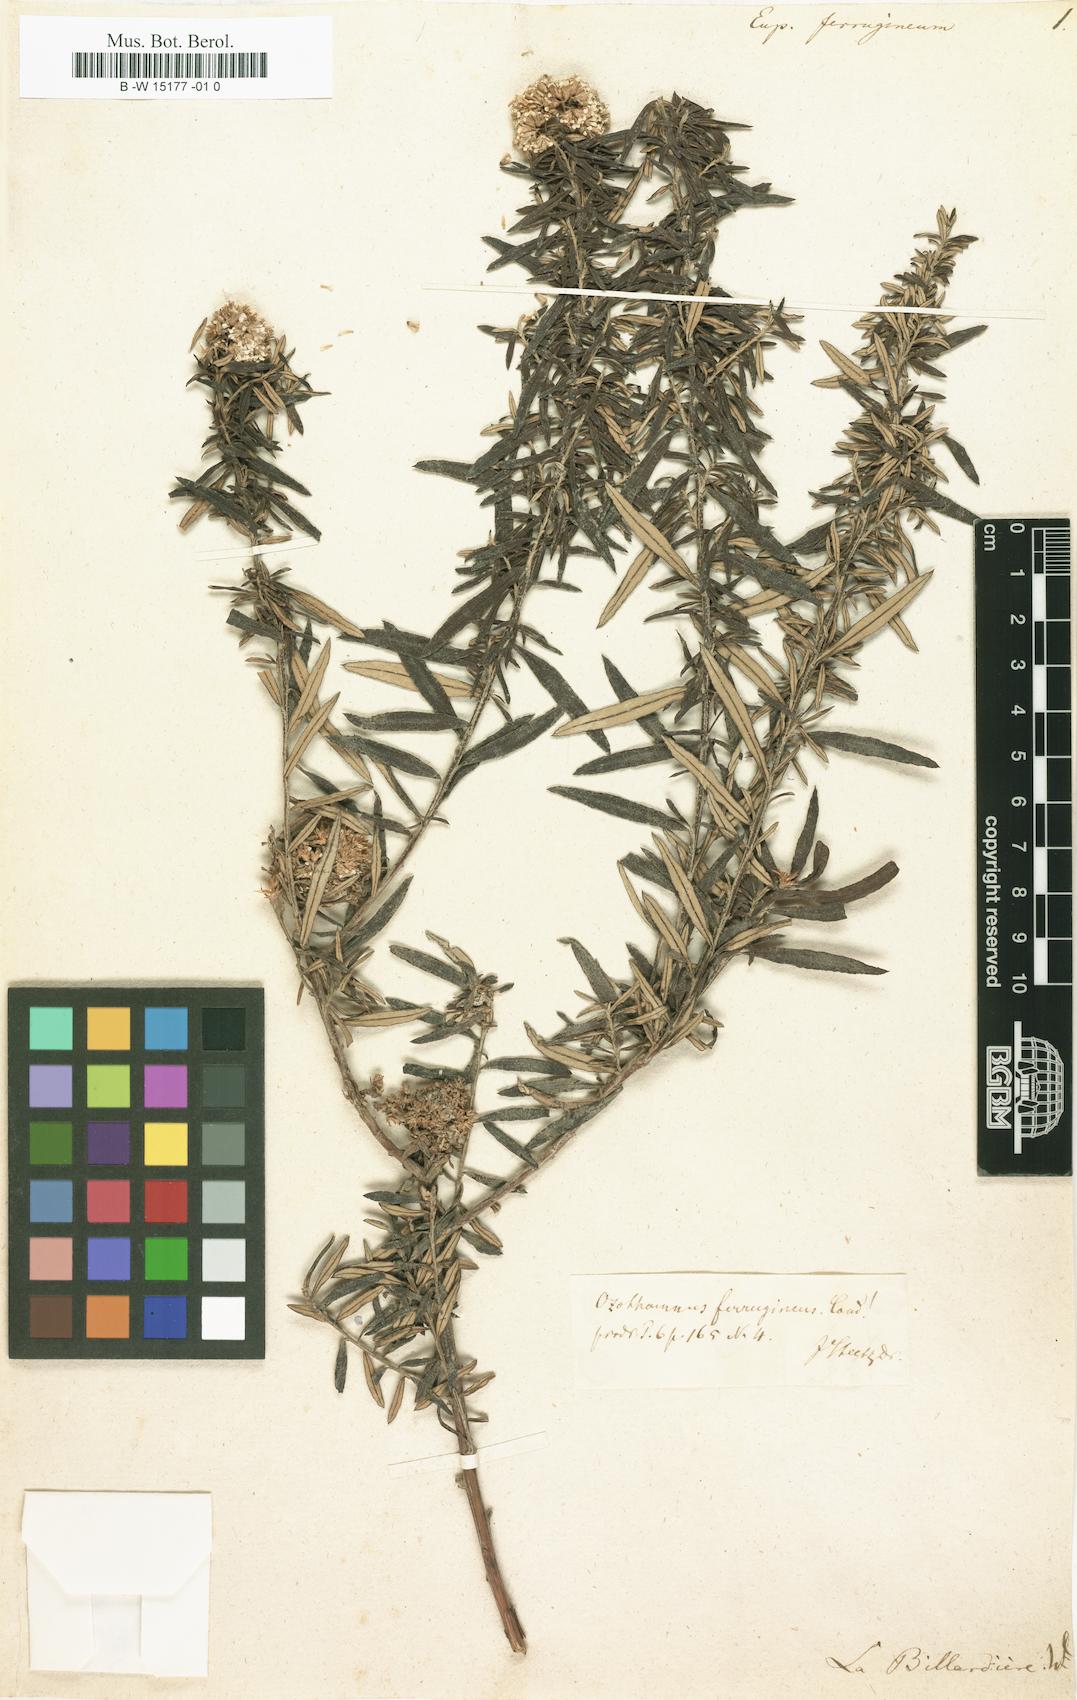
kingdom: Plantae
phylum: Tracheophyta
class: Magnoliopsida
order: Asterales
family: Asteraceae
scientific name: Asteraceae
